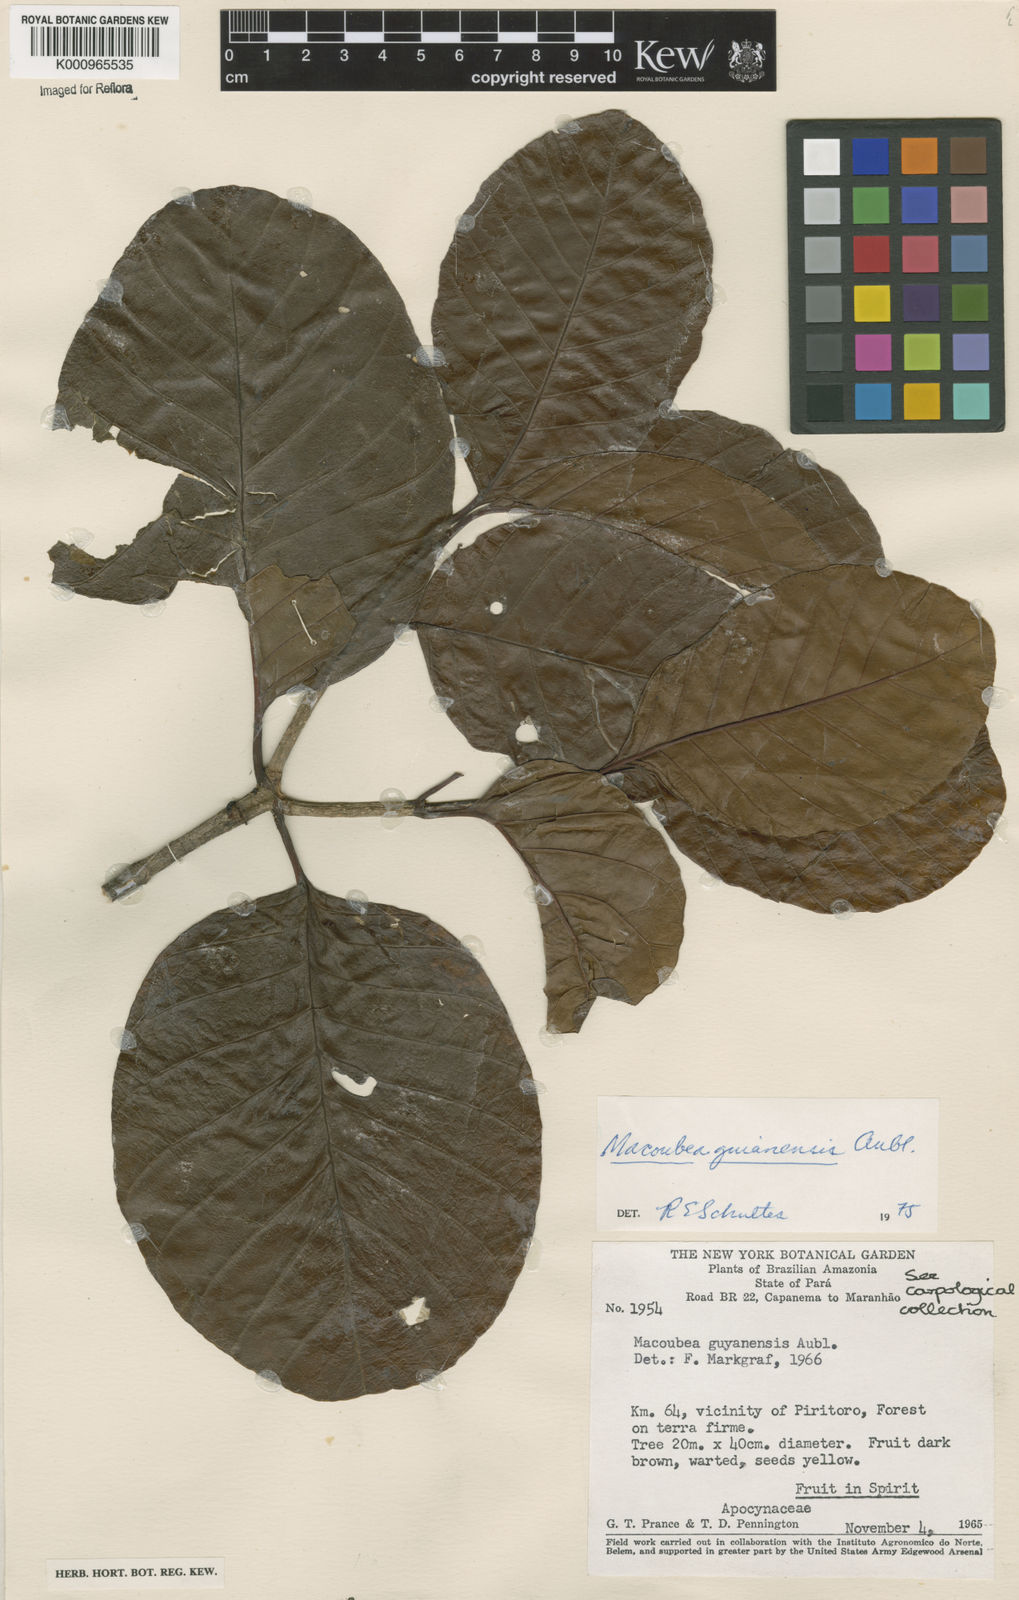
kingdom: Plantae
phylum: Tracheophyta
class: Magnoliopsida
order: Gentianales
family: Apocynaceae
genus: Macoubea
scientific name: Macoubea guianensis
